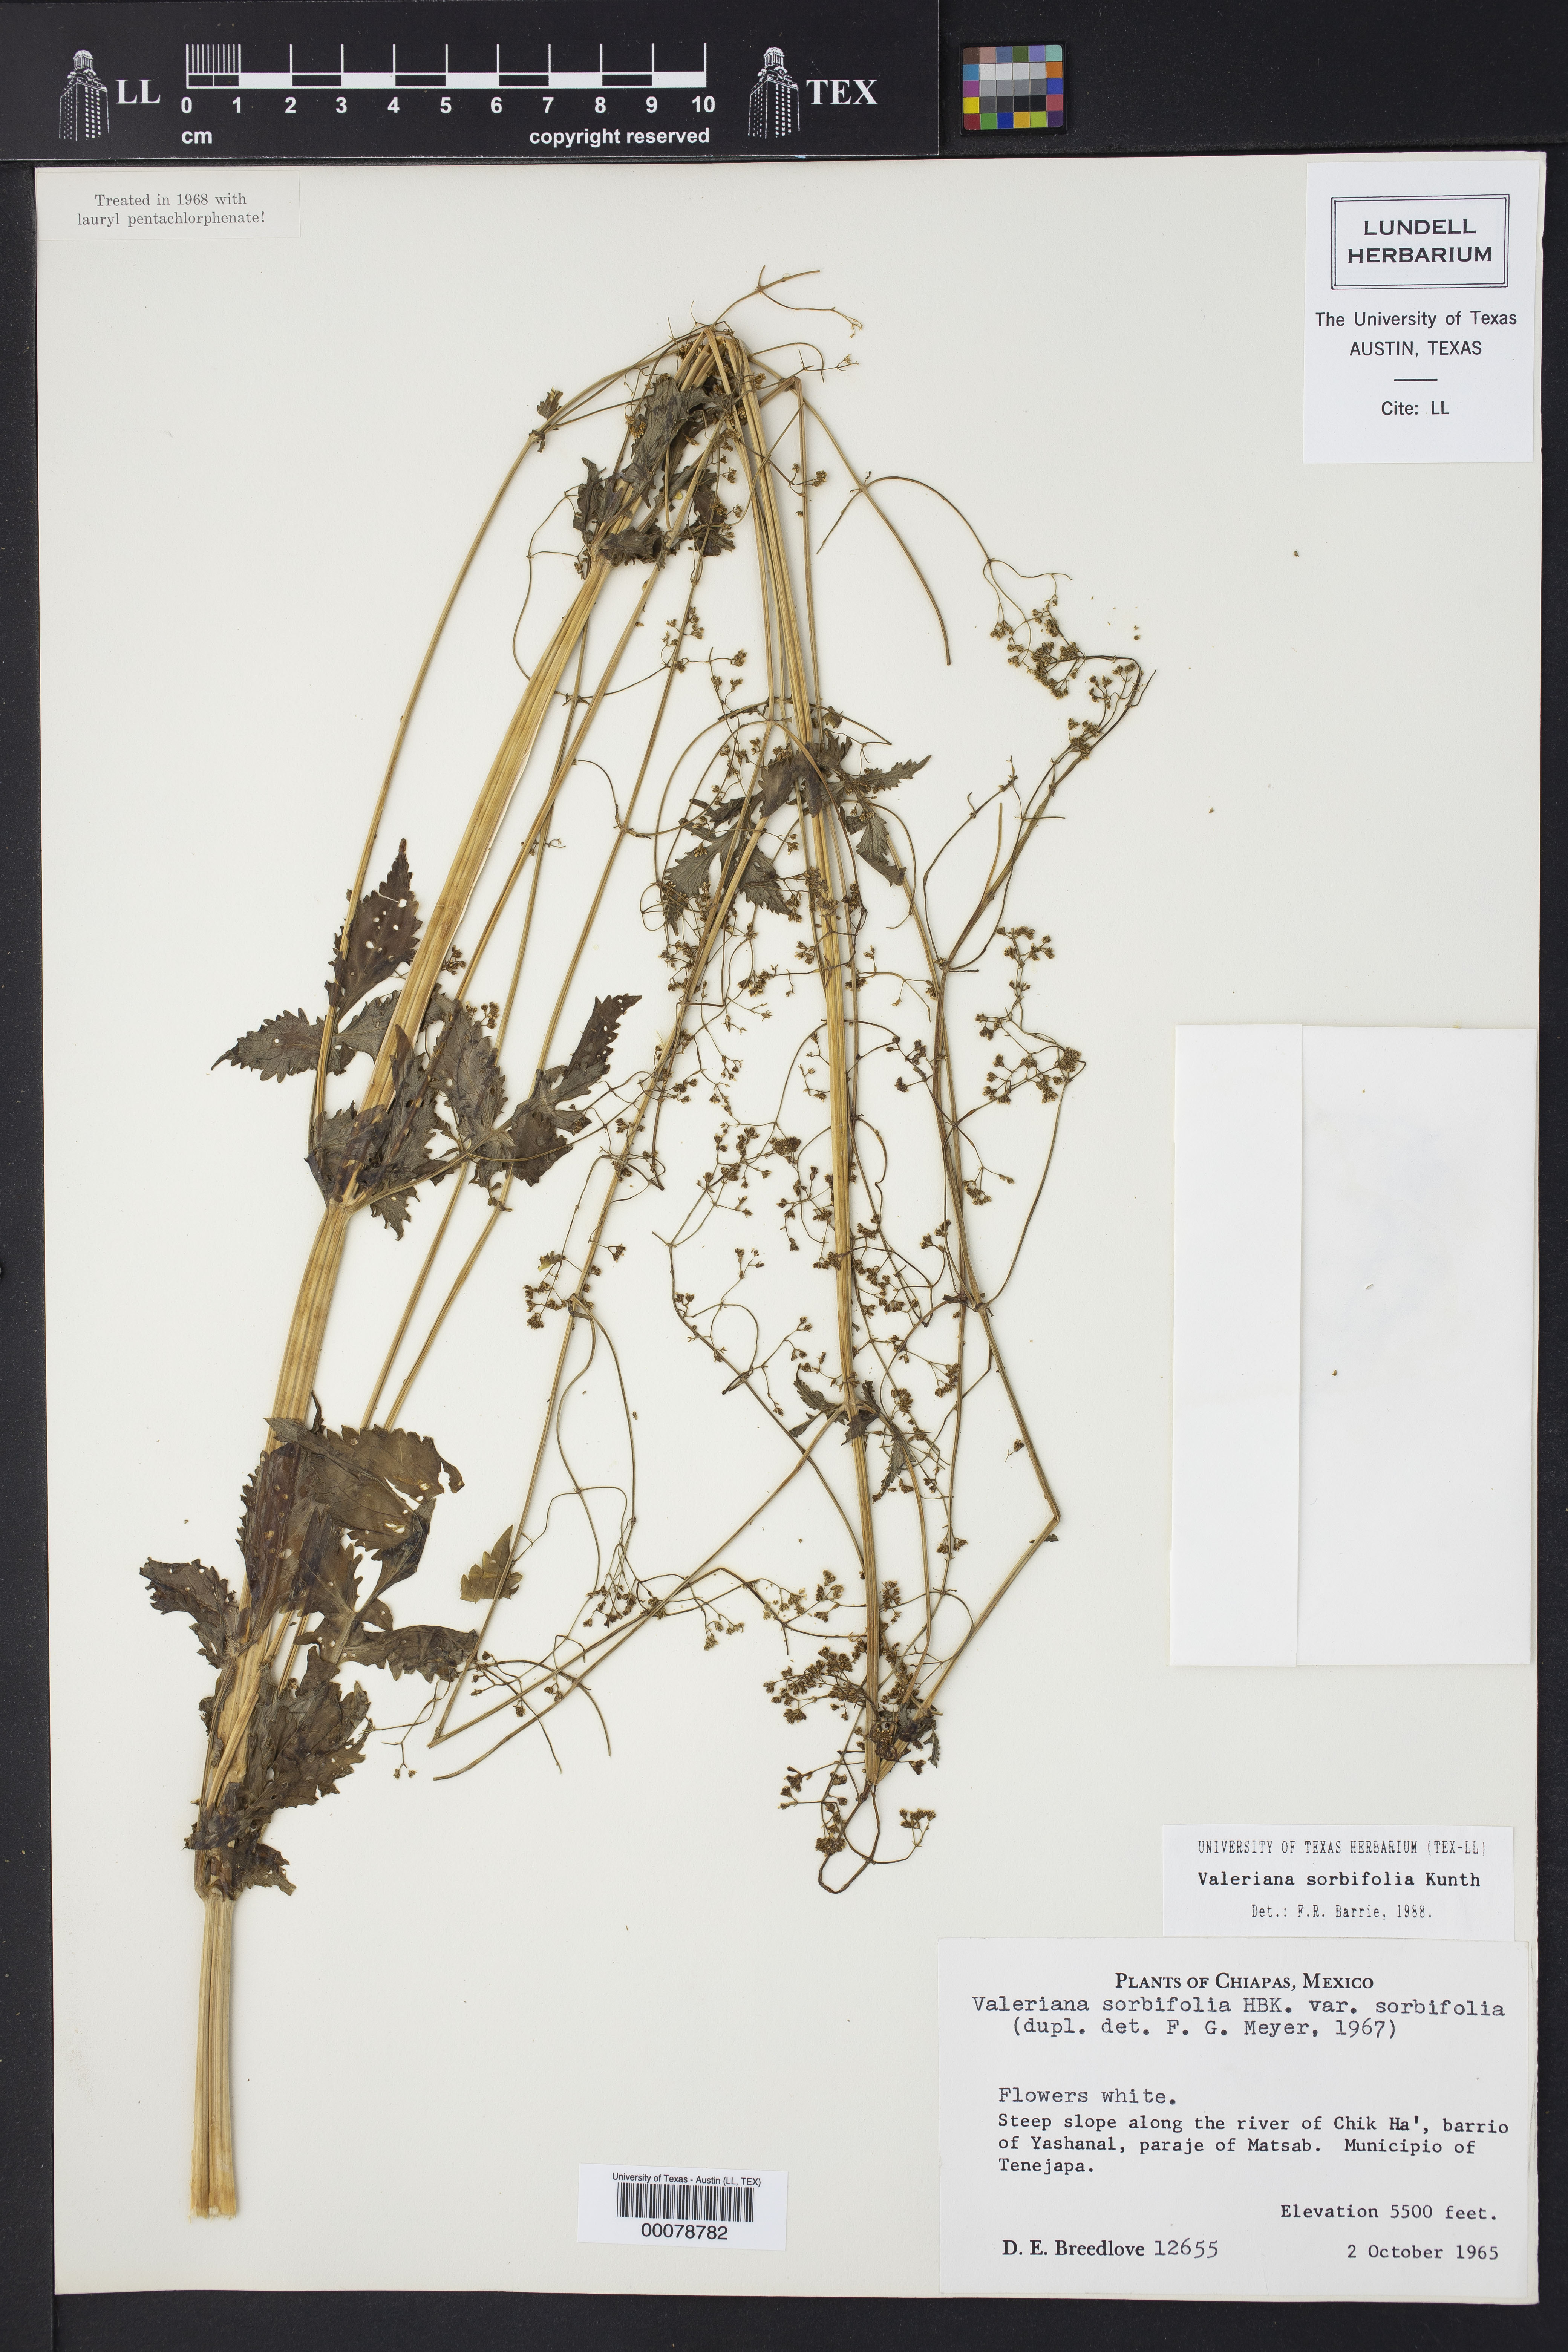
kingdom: Plantae
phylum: Tracheophyta
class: Magnoliopsida
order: Dipsacales
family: Caprifoliaceae
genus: Valeriana
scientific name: Valeriana sorbifolia
